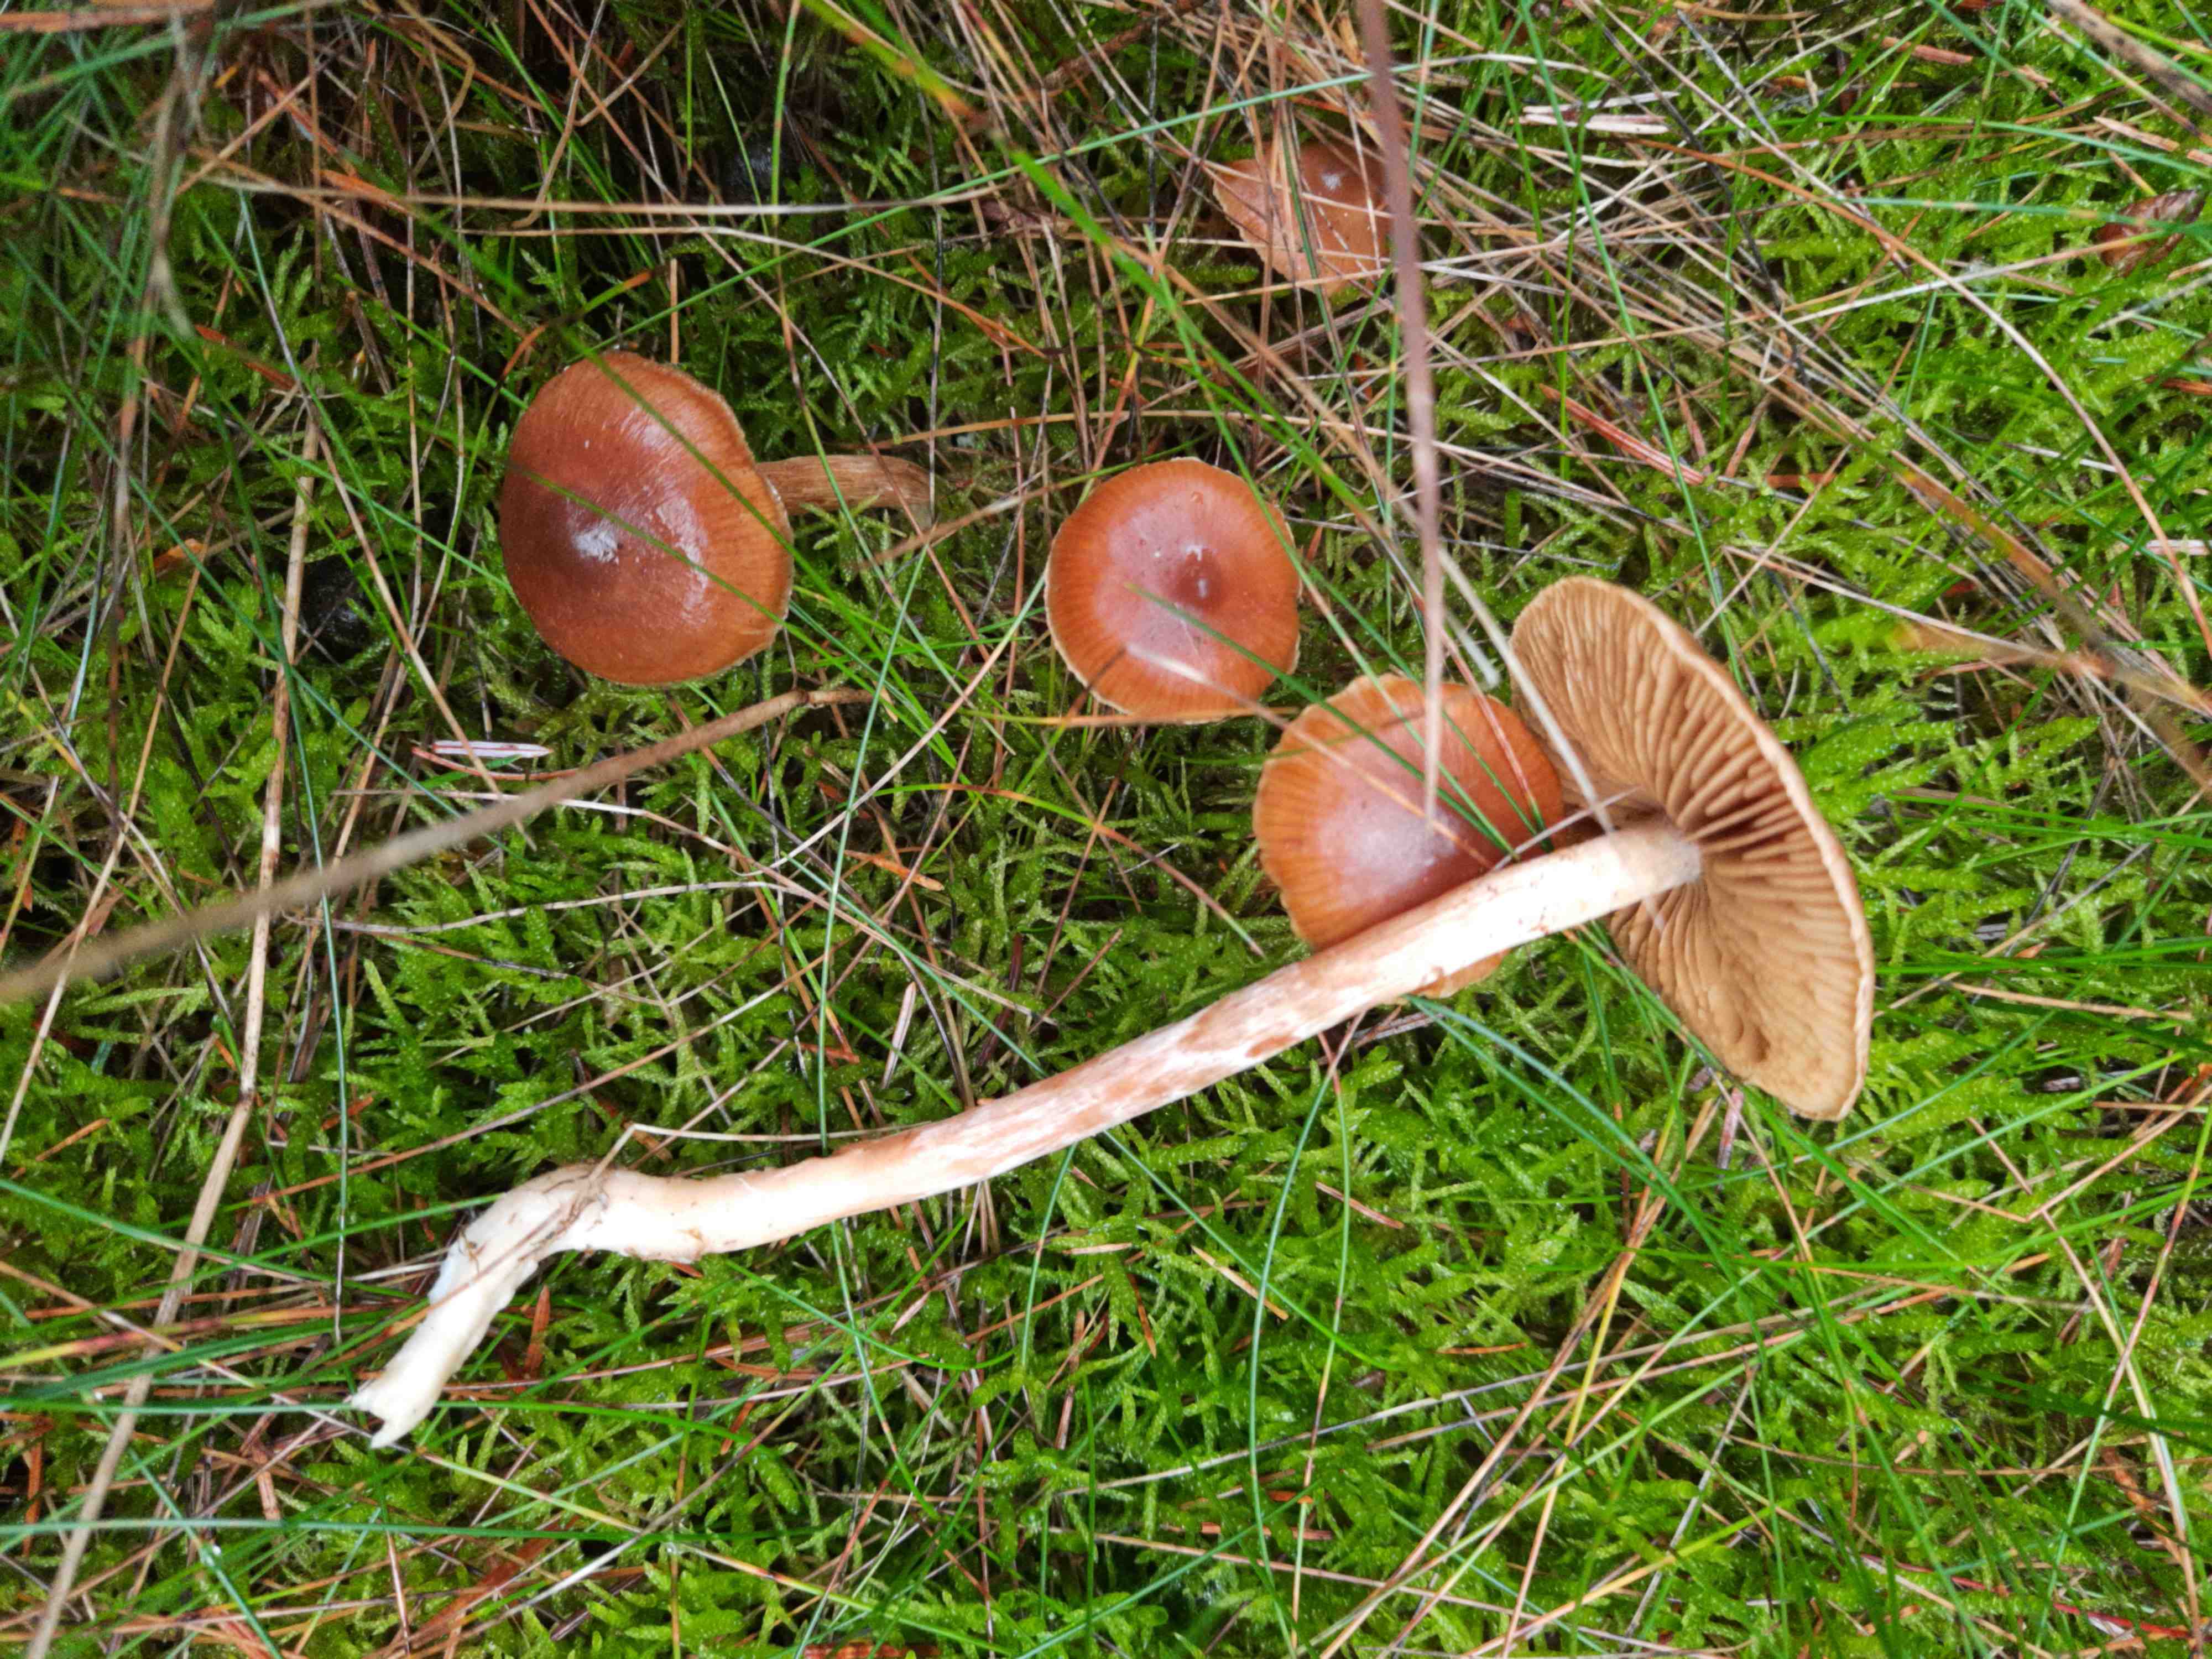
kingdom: Fungi
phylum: Basidiomycota
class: Agaricomycetes
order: Agaricales
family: Cortinariaceae
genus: Cortinarius
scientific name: Cortinarius
